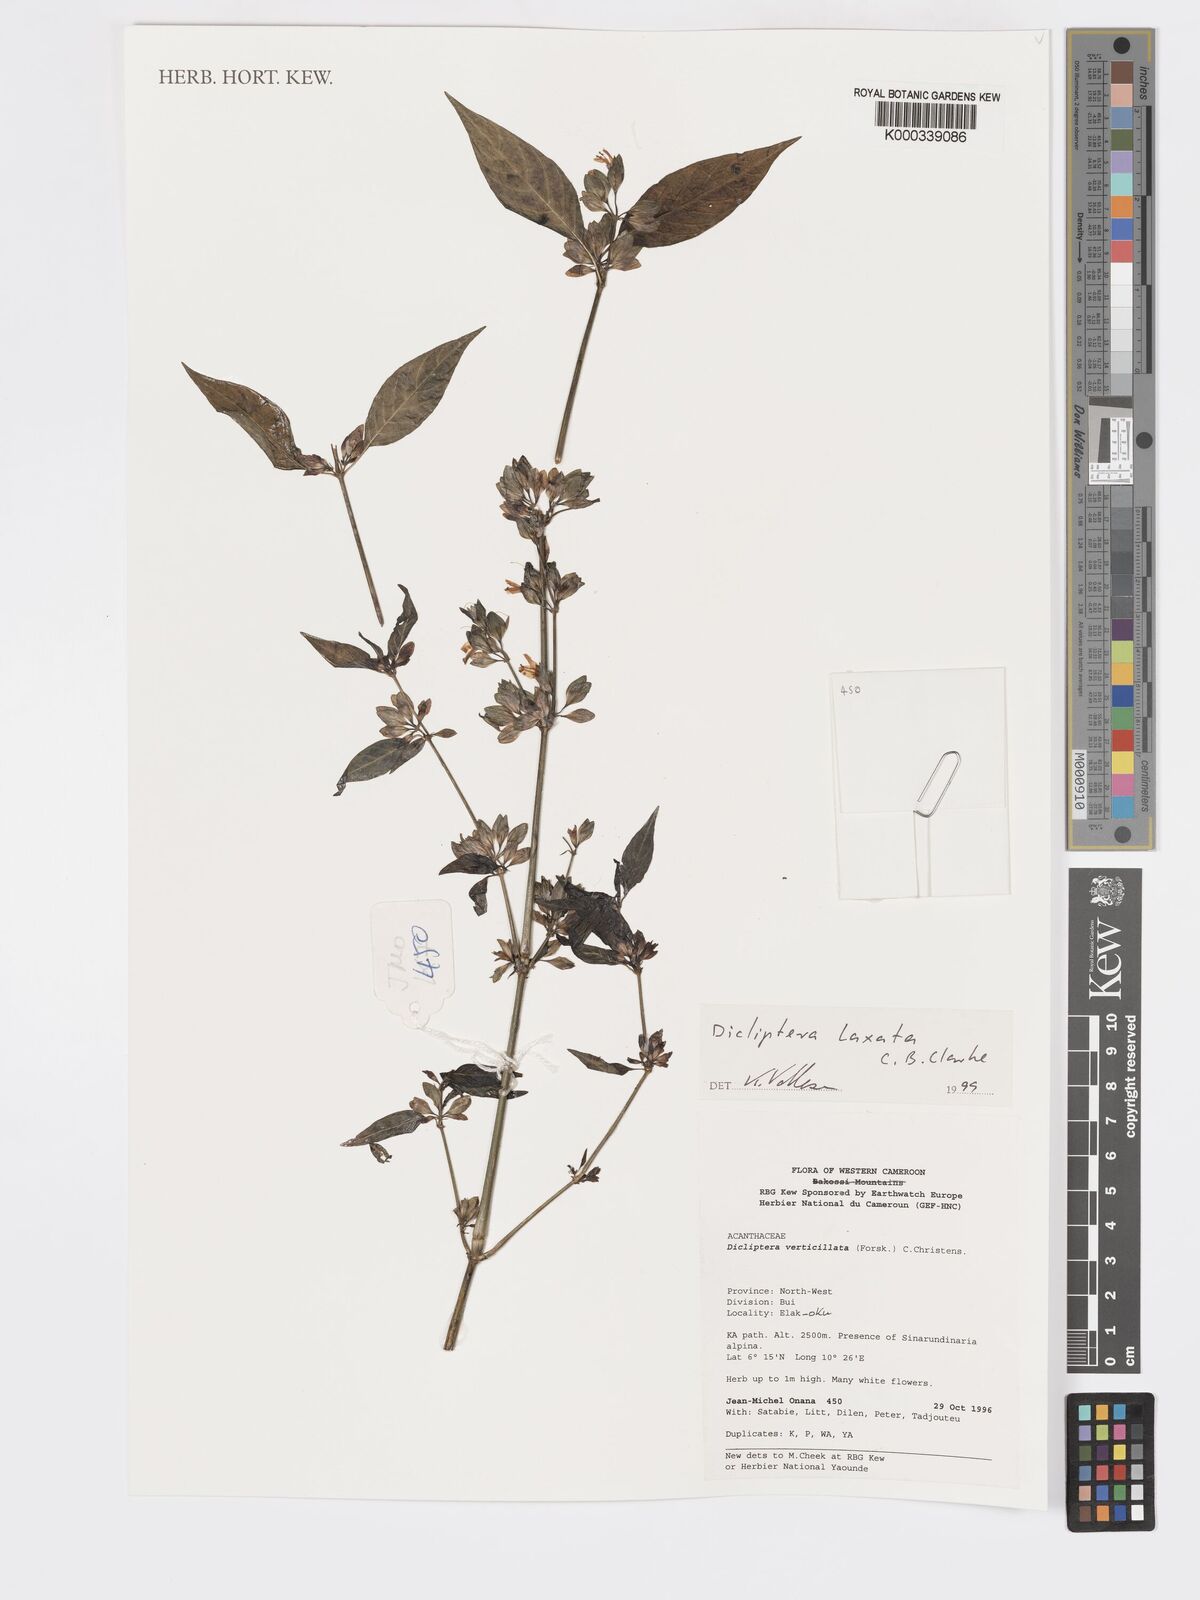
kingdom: Plantae
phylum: Tracheophyta
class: Magnoliopsida
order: Lamiales
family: Acanthaceae
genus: Dicliptera
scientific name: Dicliptera laxata
